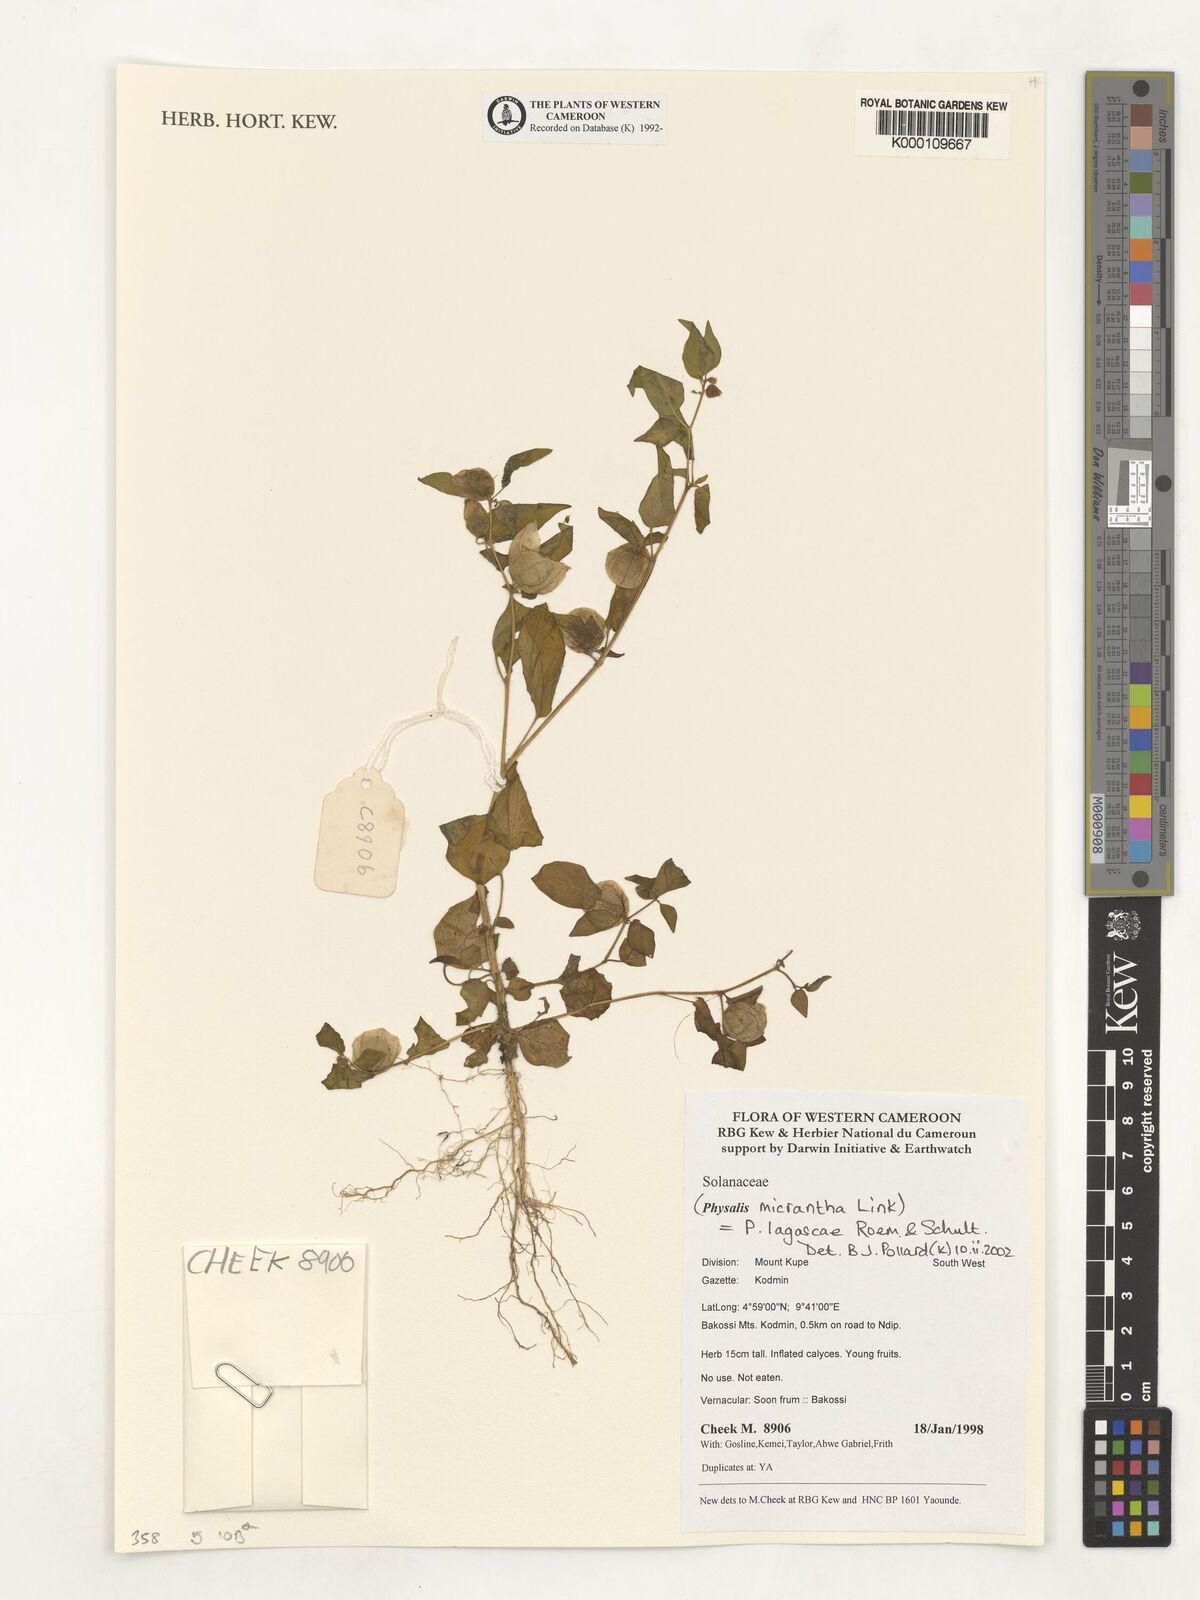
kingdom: Plantae
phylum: Tracheophyta
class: Magnoliopsida
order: Solanales
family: Solanaceae
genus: Physalis
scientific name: Physalis lagascae
